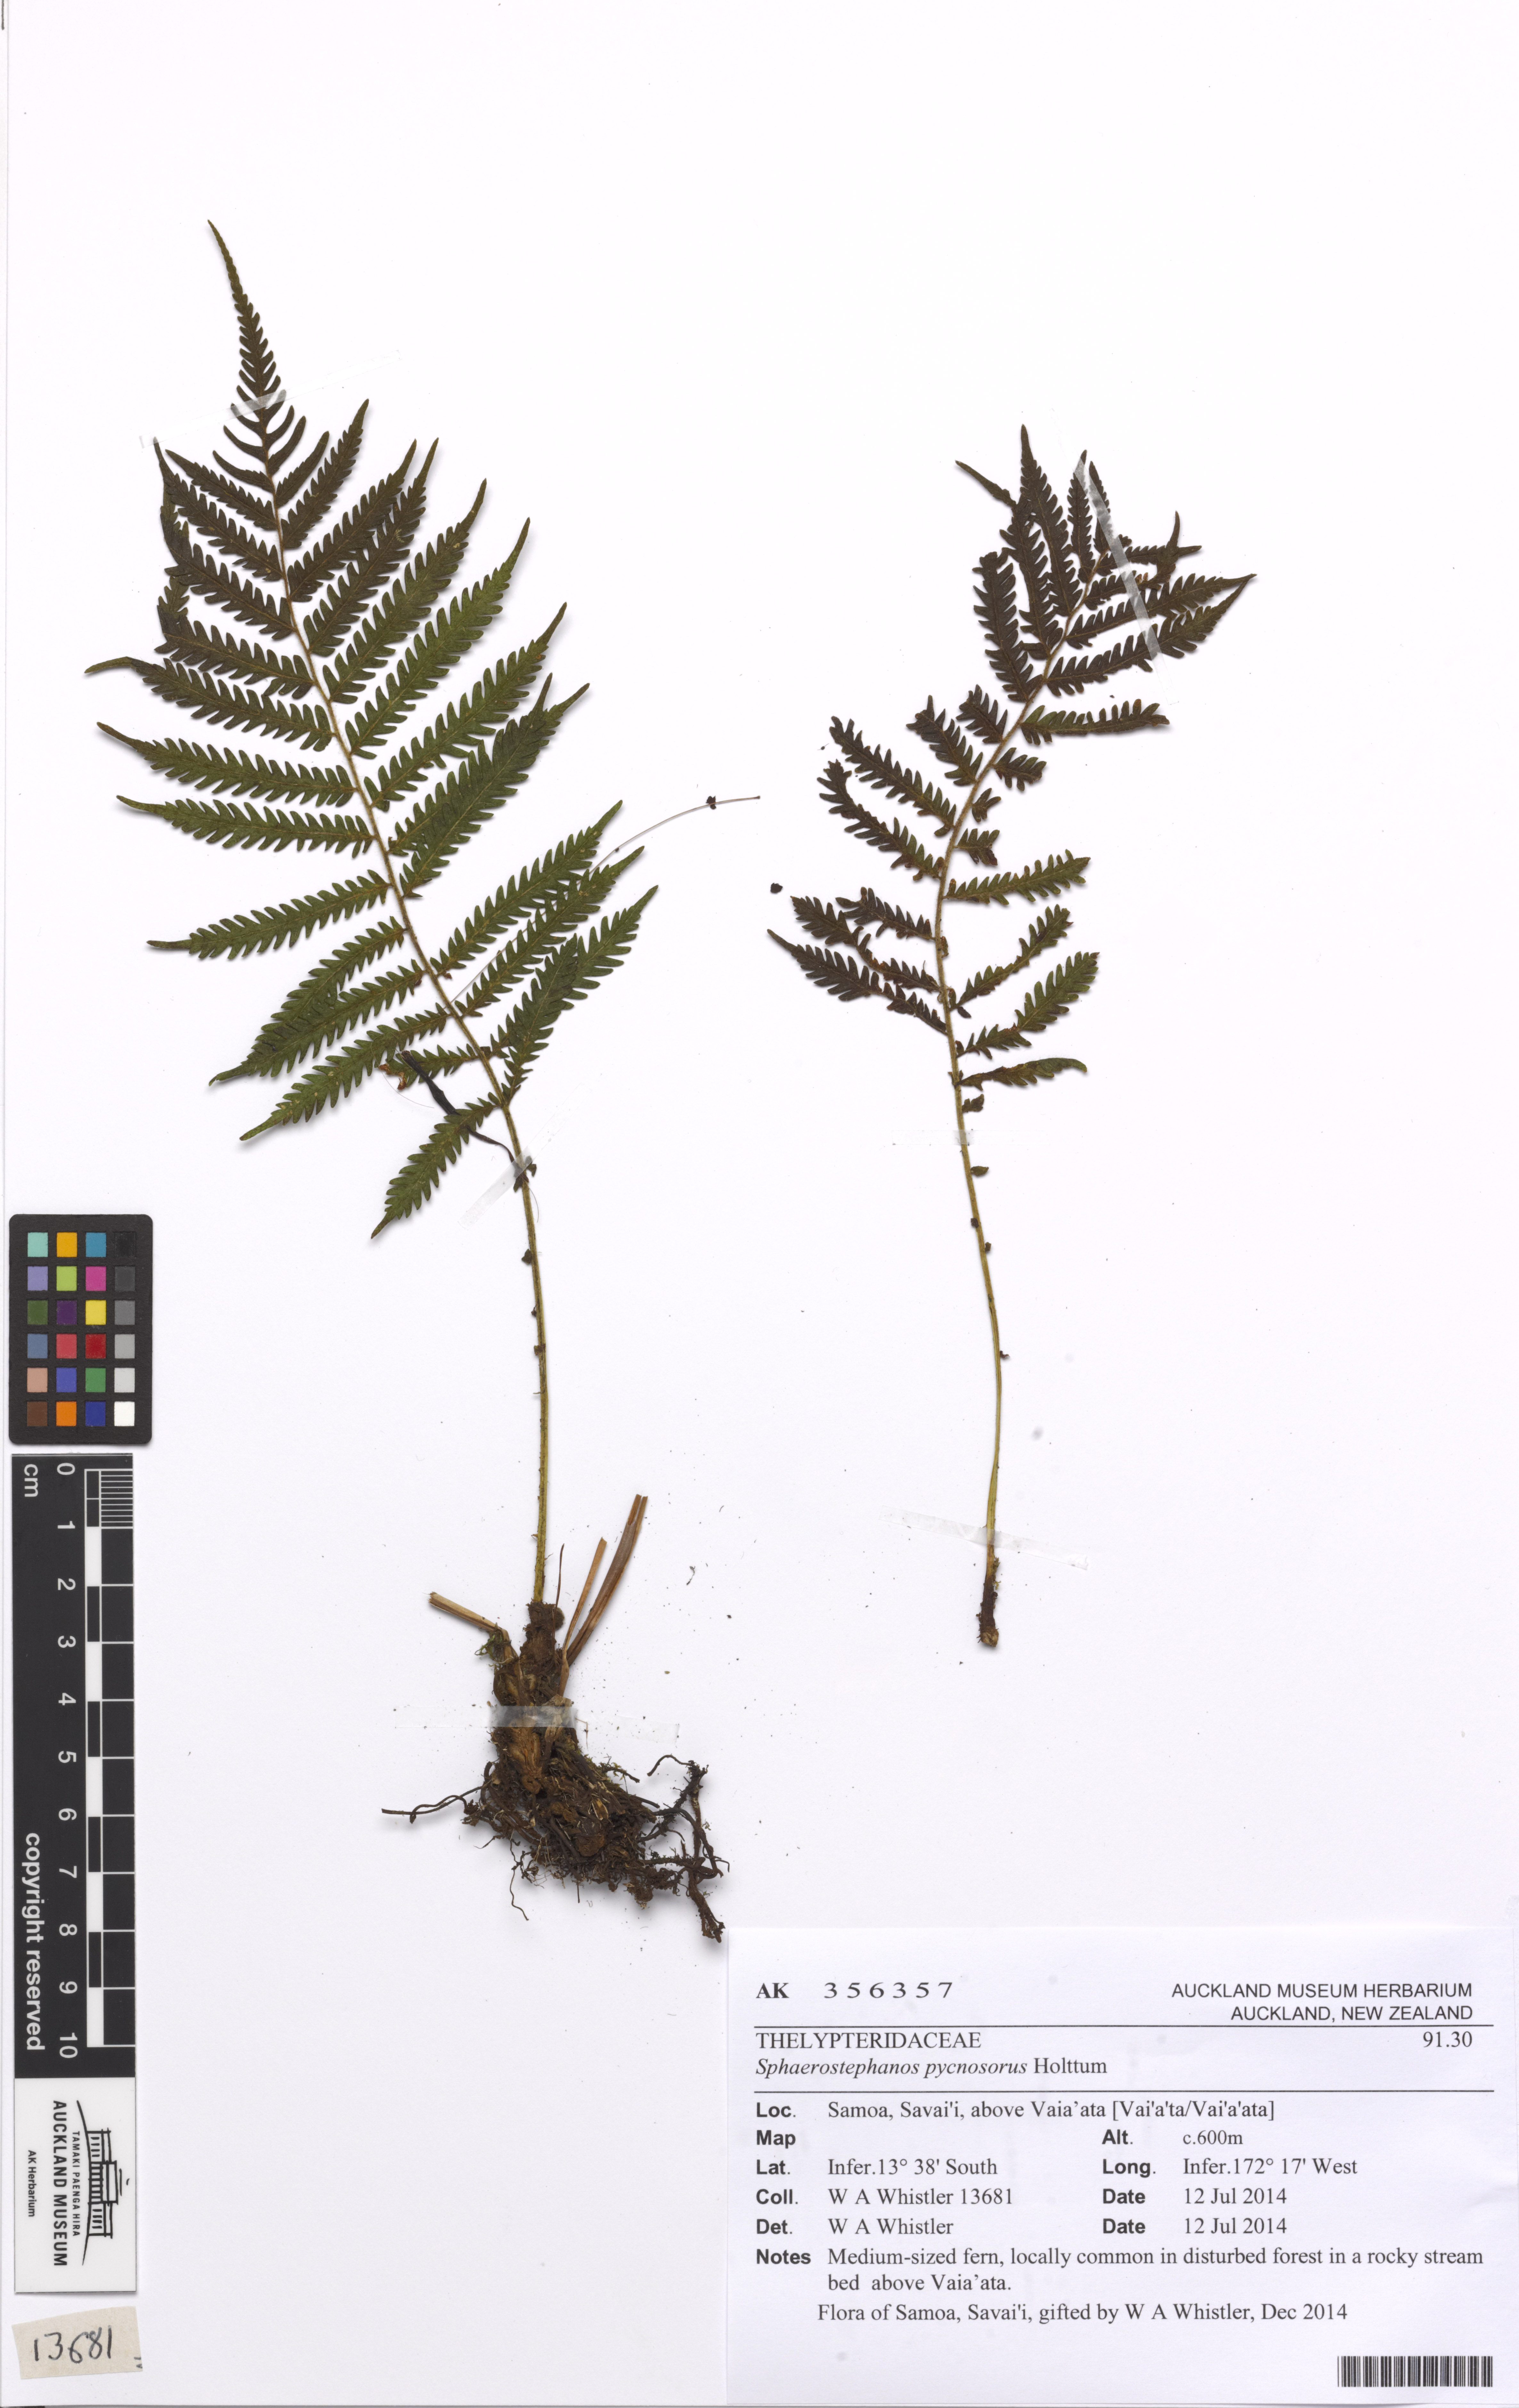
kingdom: Plantae
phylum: Tracheophyta
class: Polypodiopsida
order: Polypodiales
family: Thelypteridaceae
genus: Sphaerostephanos
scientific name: Sphaerostephanos pycnosorus
